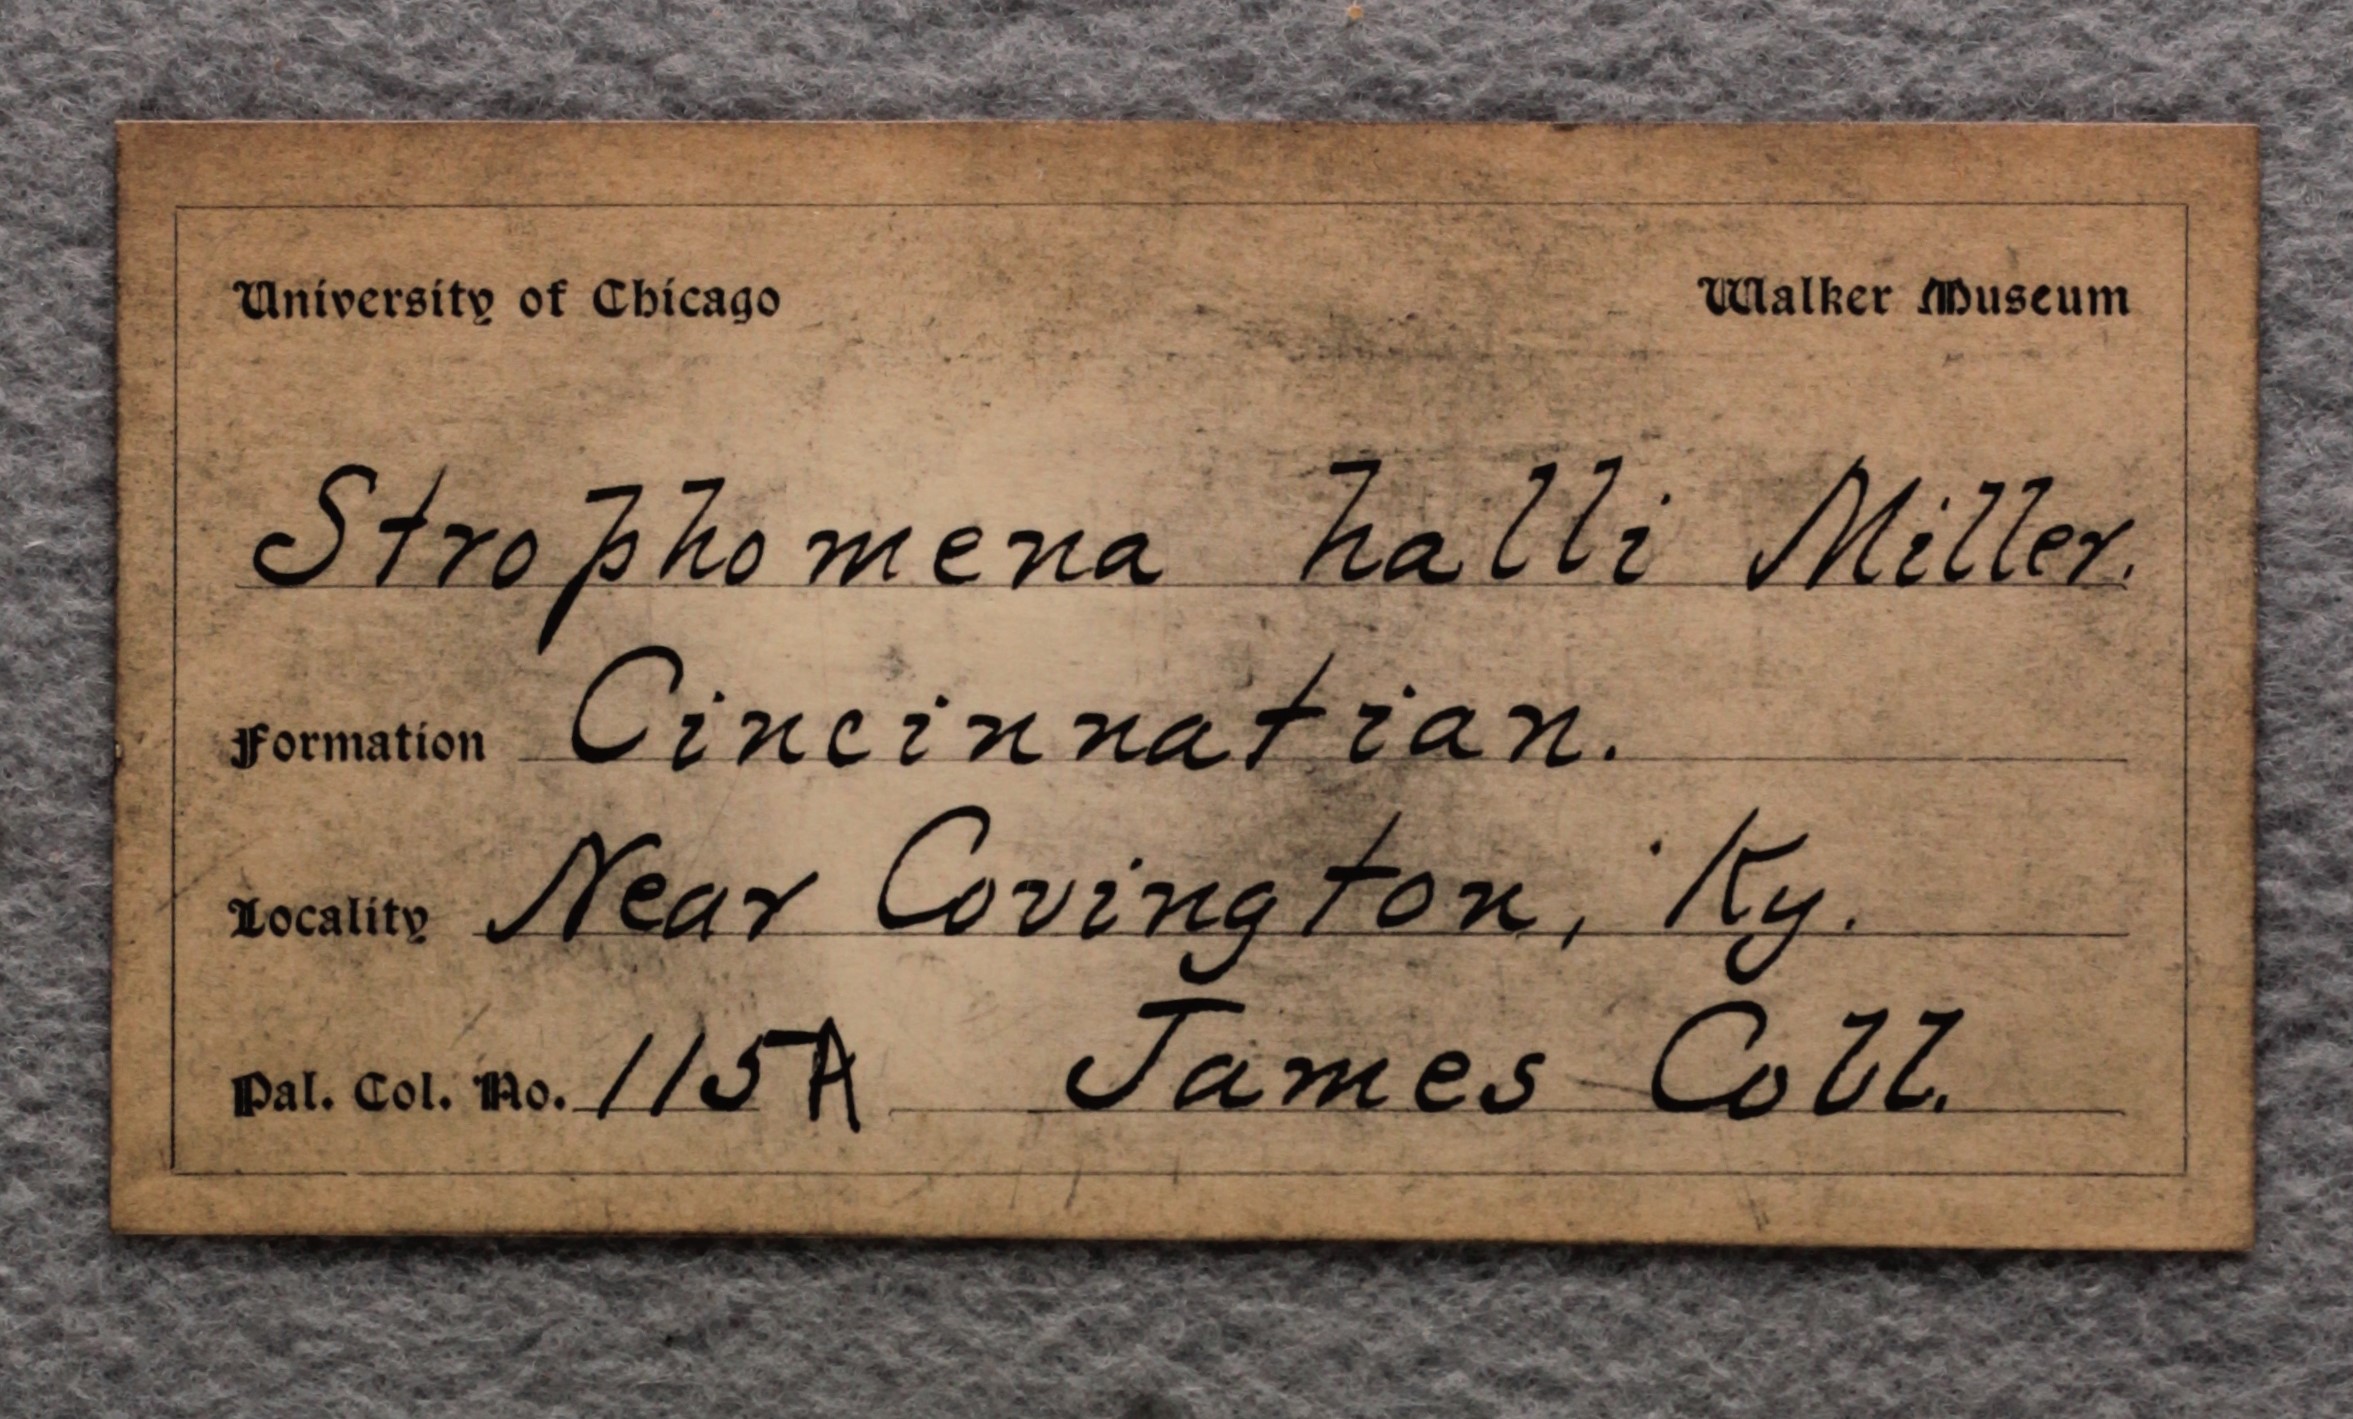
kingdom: Animalia
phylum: Brachiopoda
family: Strophomenidae
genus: Bellimurina
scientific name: Bellimurina Leptaena charlottae
